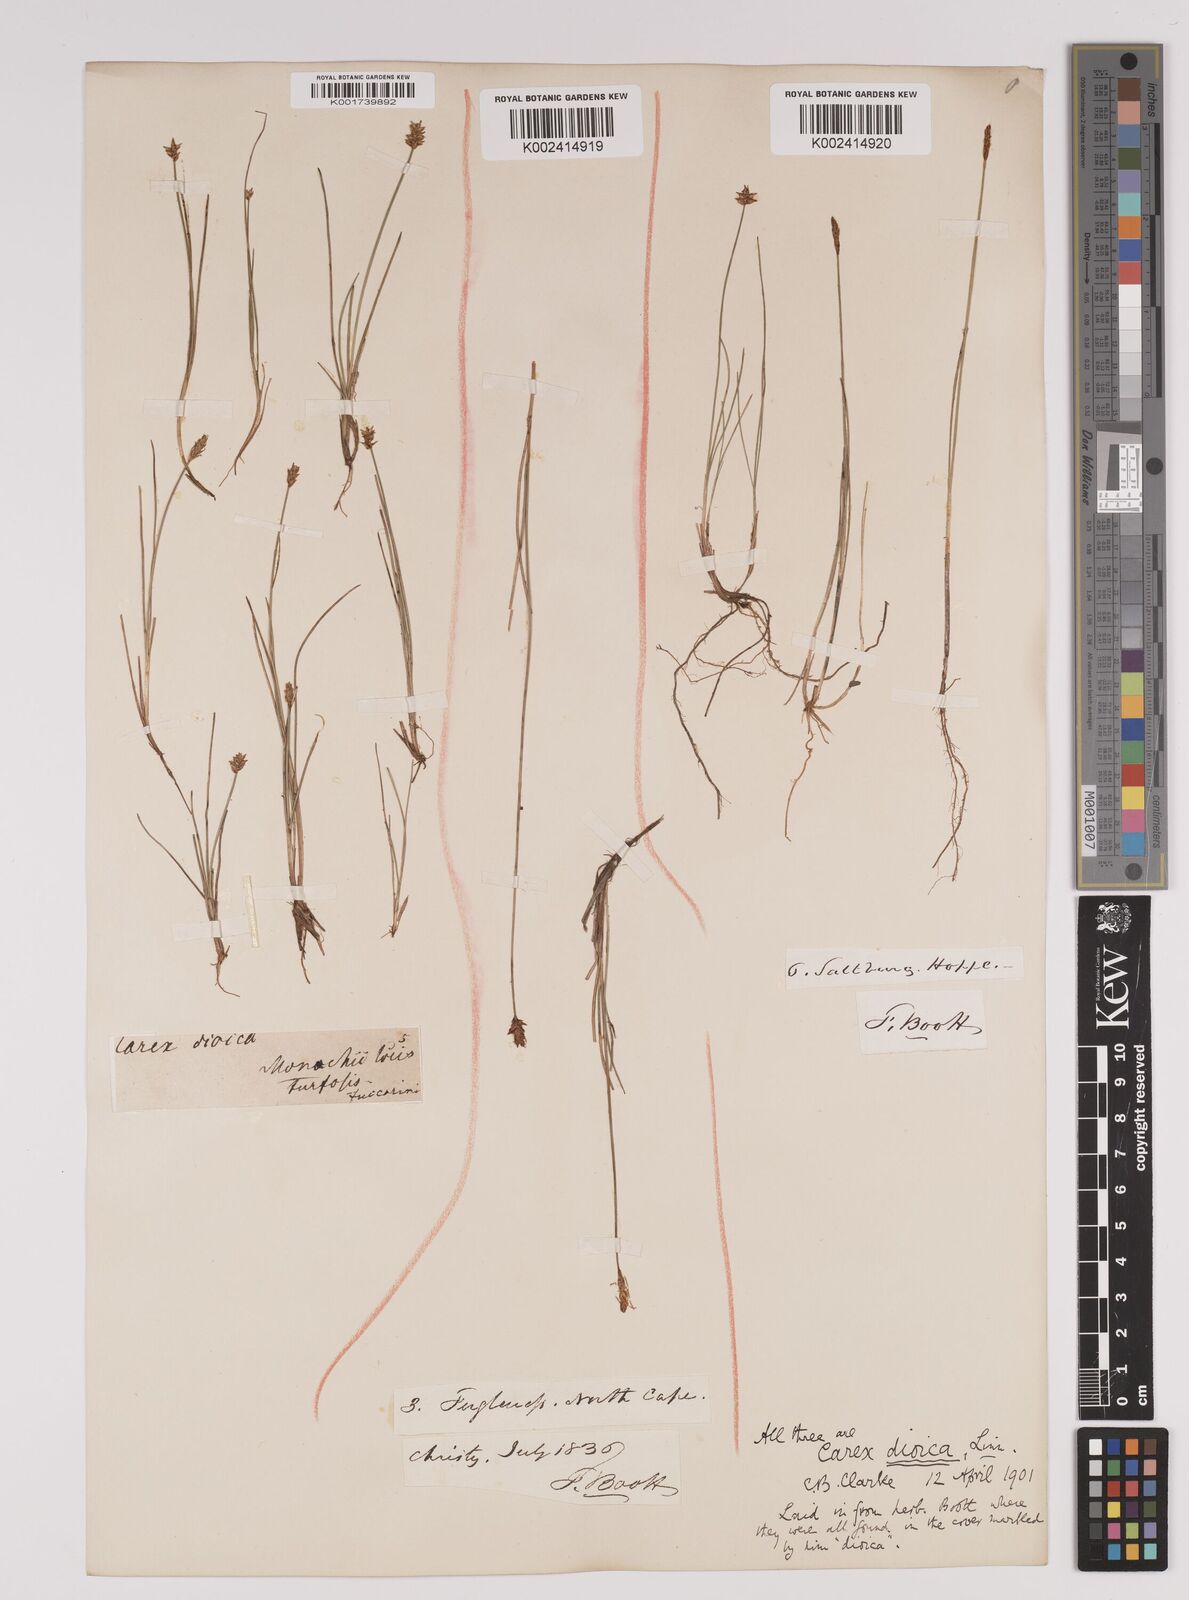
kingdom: Plantae
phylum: Tracheophyta
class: Liliopsida
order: Poales
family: Cyperaceae
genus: Carex
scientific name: Carex dioica
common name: Dioecious sedge
